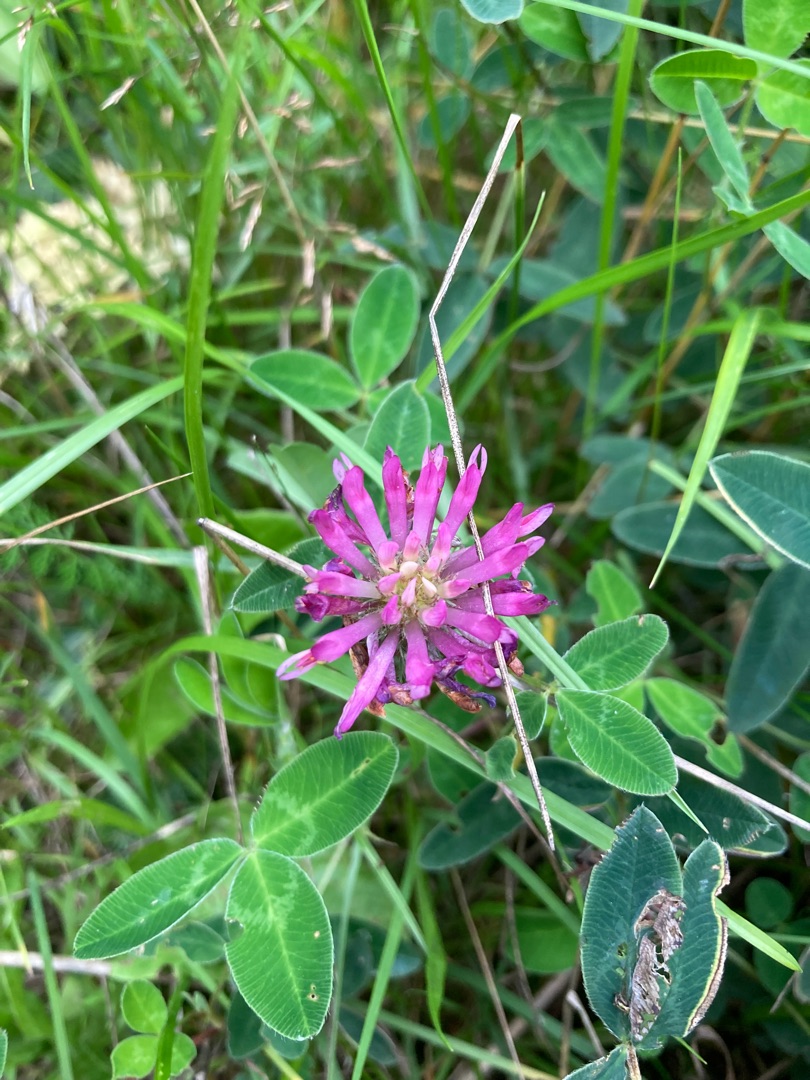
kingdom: Plantae
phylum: Tracheophyta
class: Magnoliopsida
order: Fabales
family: Fabaceae
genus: Trifolium
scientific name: Trifolium medium
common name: Bugtet kløver
